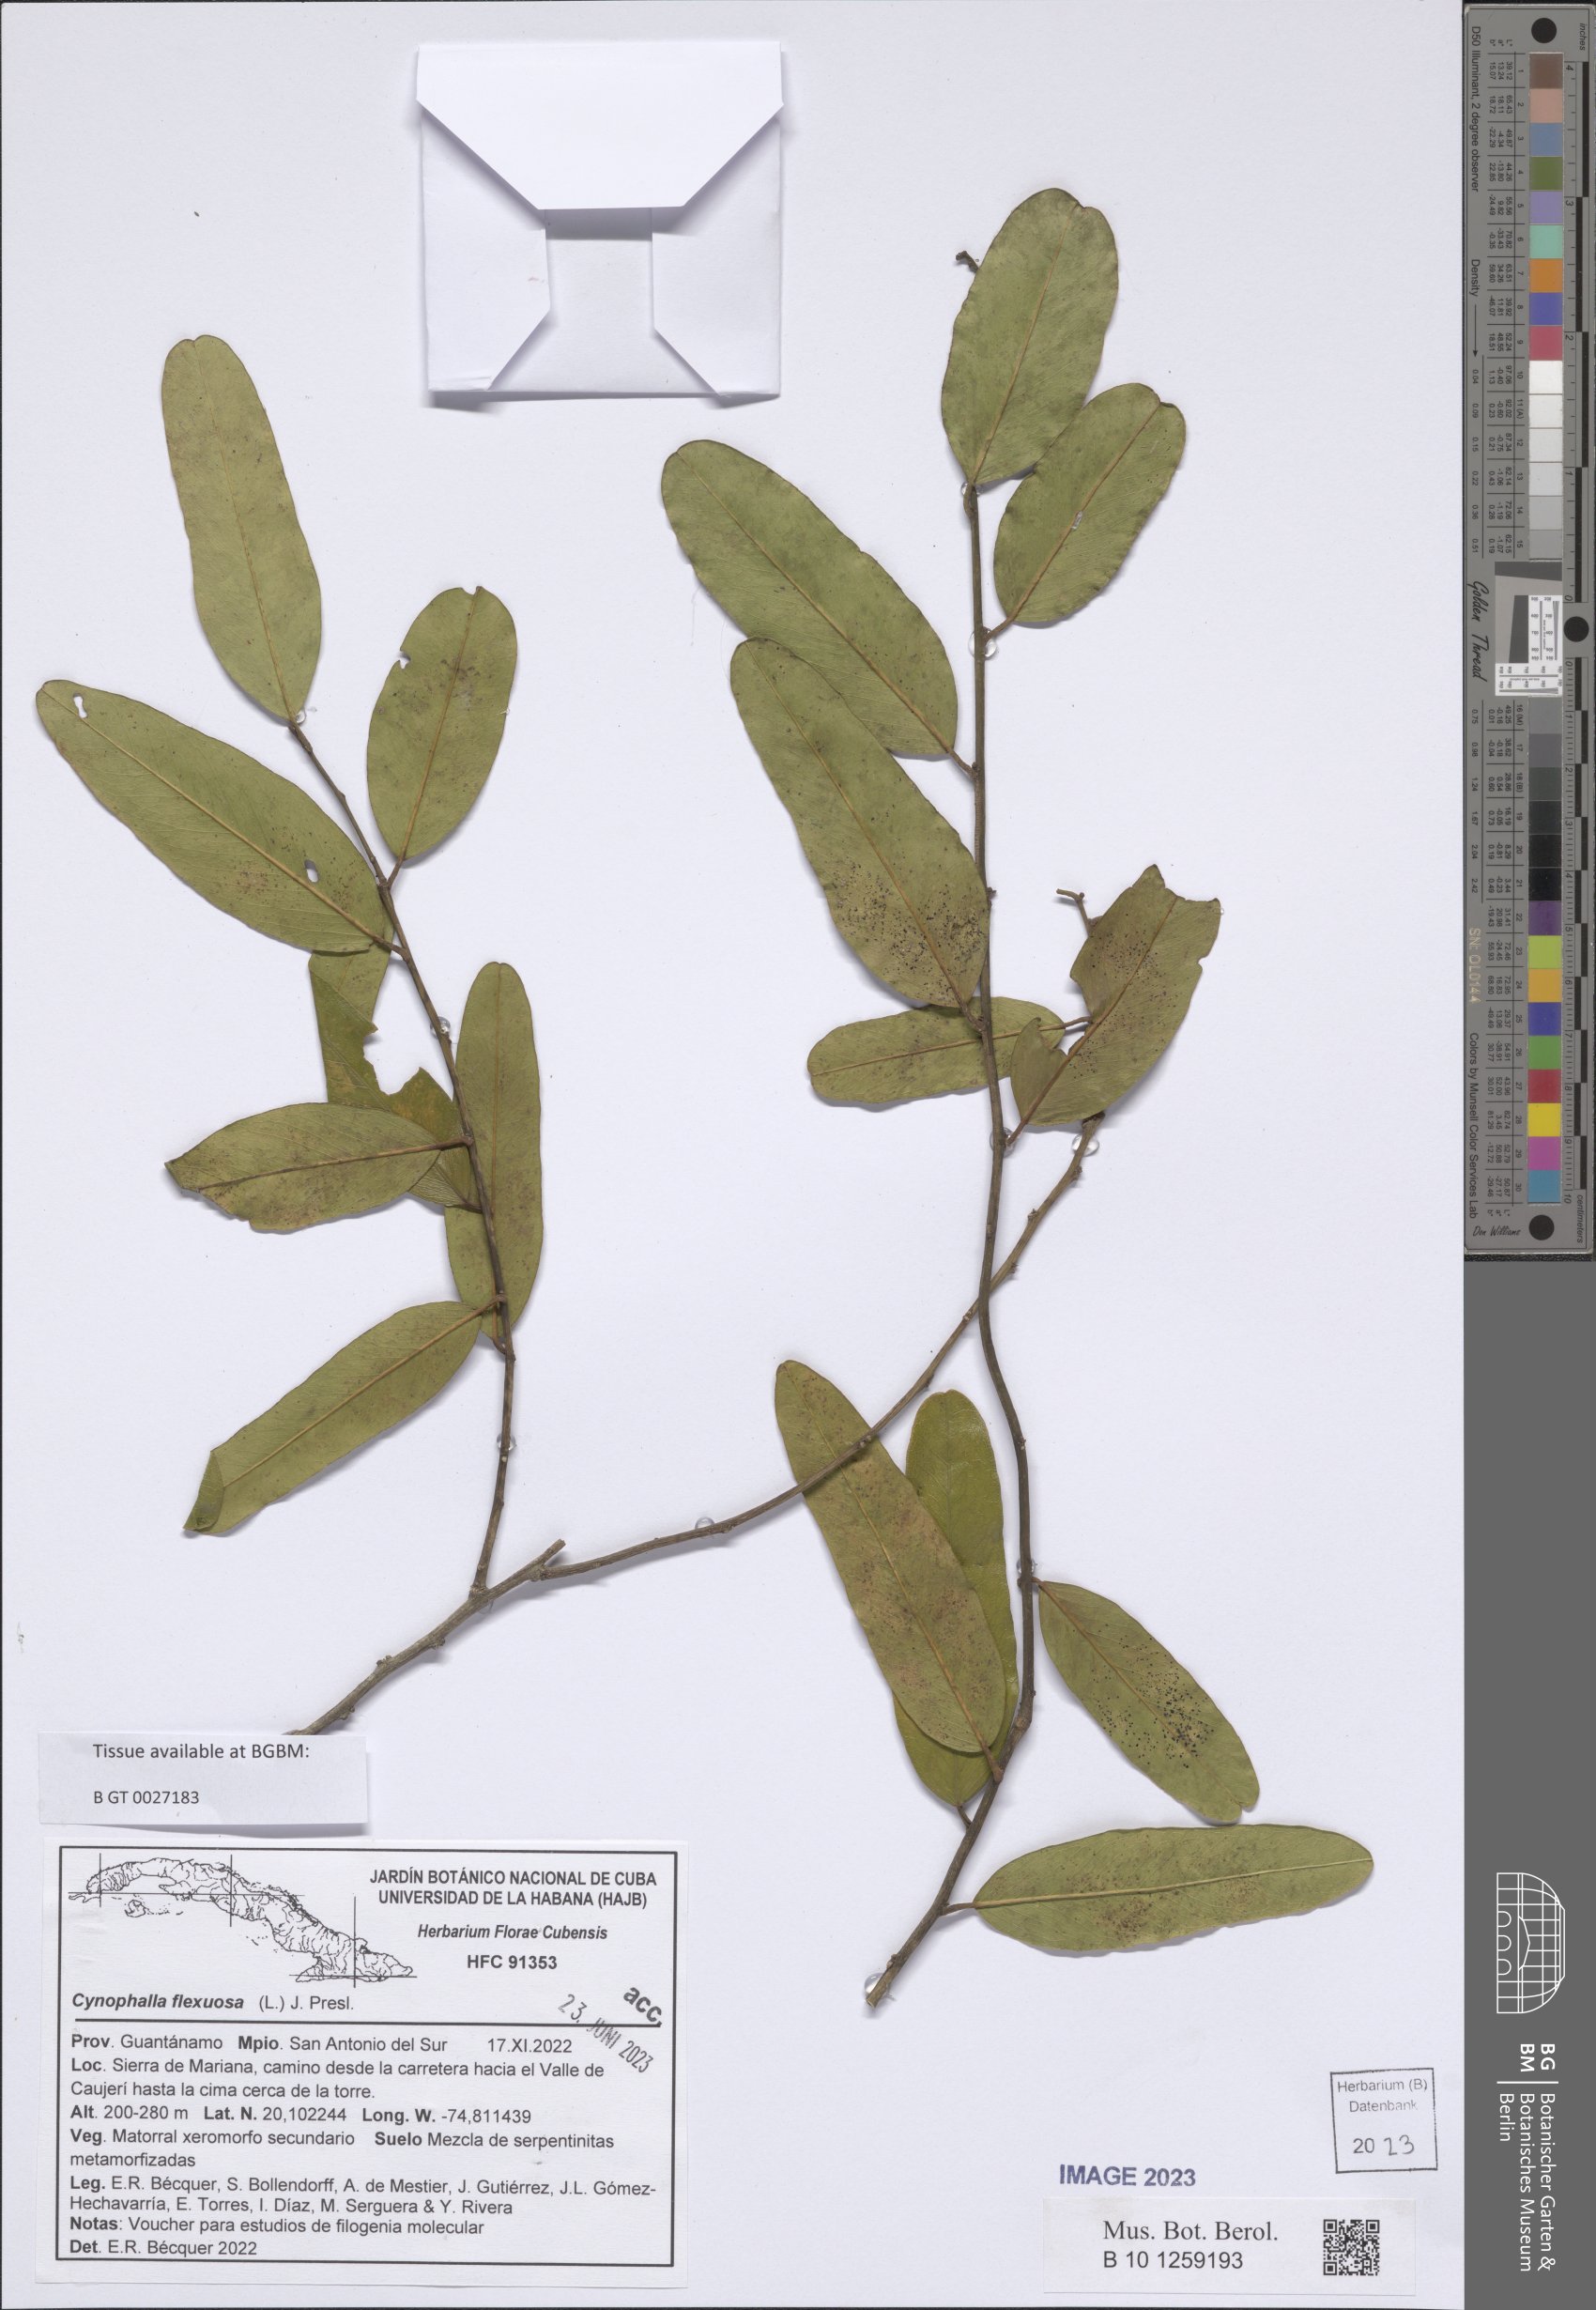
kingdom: Plantae
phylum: Tracheophyta
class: Magnoliopsida
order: Brassicales
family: Capparaceae
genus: Cynophalla
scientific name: Cynophalla flexuosa
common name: Capertree
